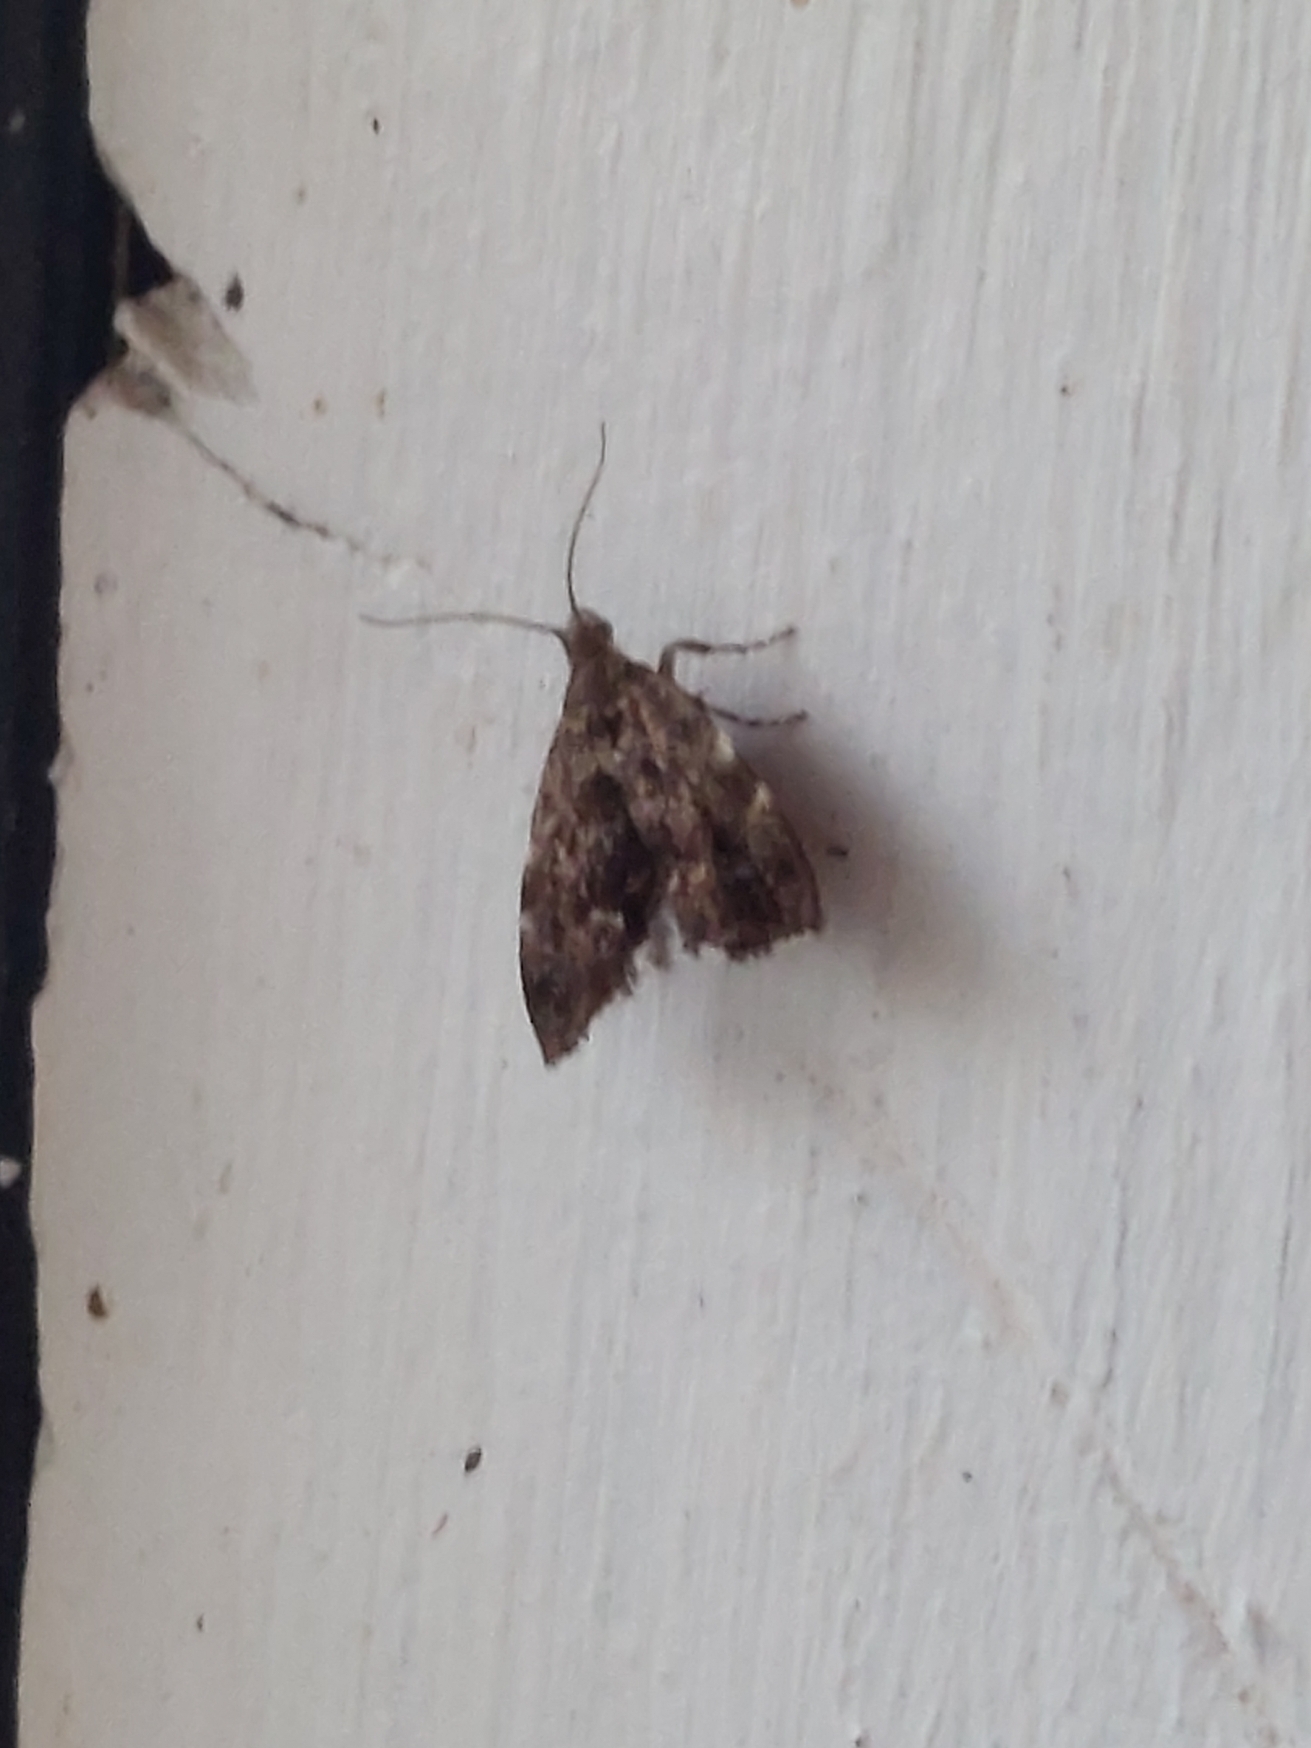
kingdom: Animalia
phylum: Arthropoda
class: Insecta
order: Lepidoptera
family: Choreutidae
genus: Anthophila
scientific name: Anthophila fabriciana
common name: Bredvinget nældevikler
